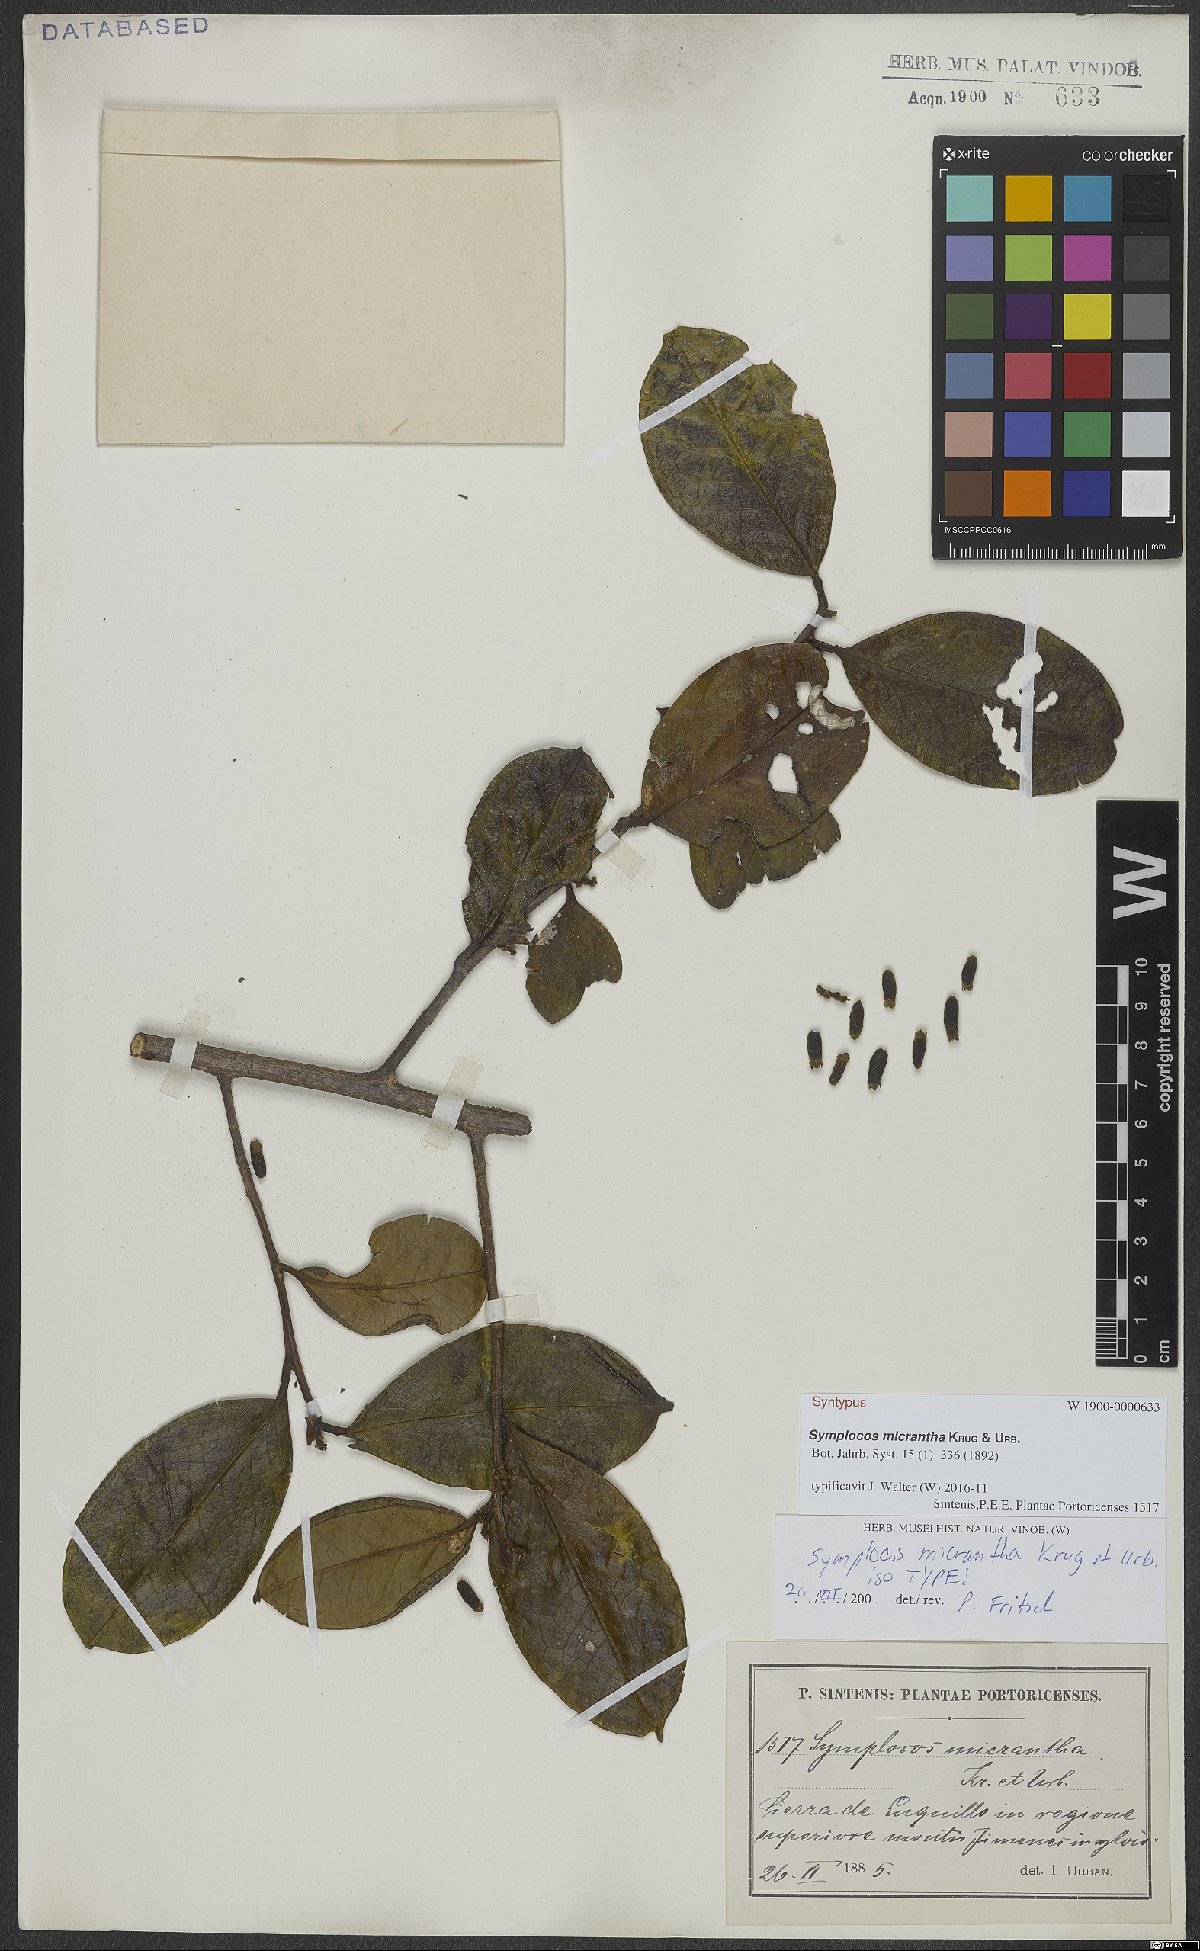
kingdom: Plantae
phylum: Tracheophyta
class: Magnoliopsida
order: Ericales
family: Symplocaceae
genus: Symplocos
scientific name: Symplocos micrantha
